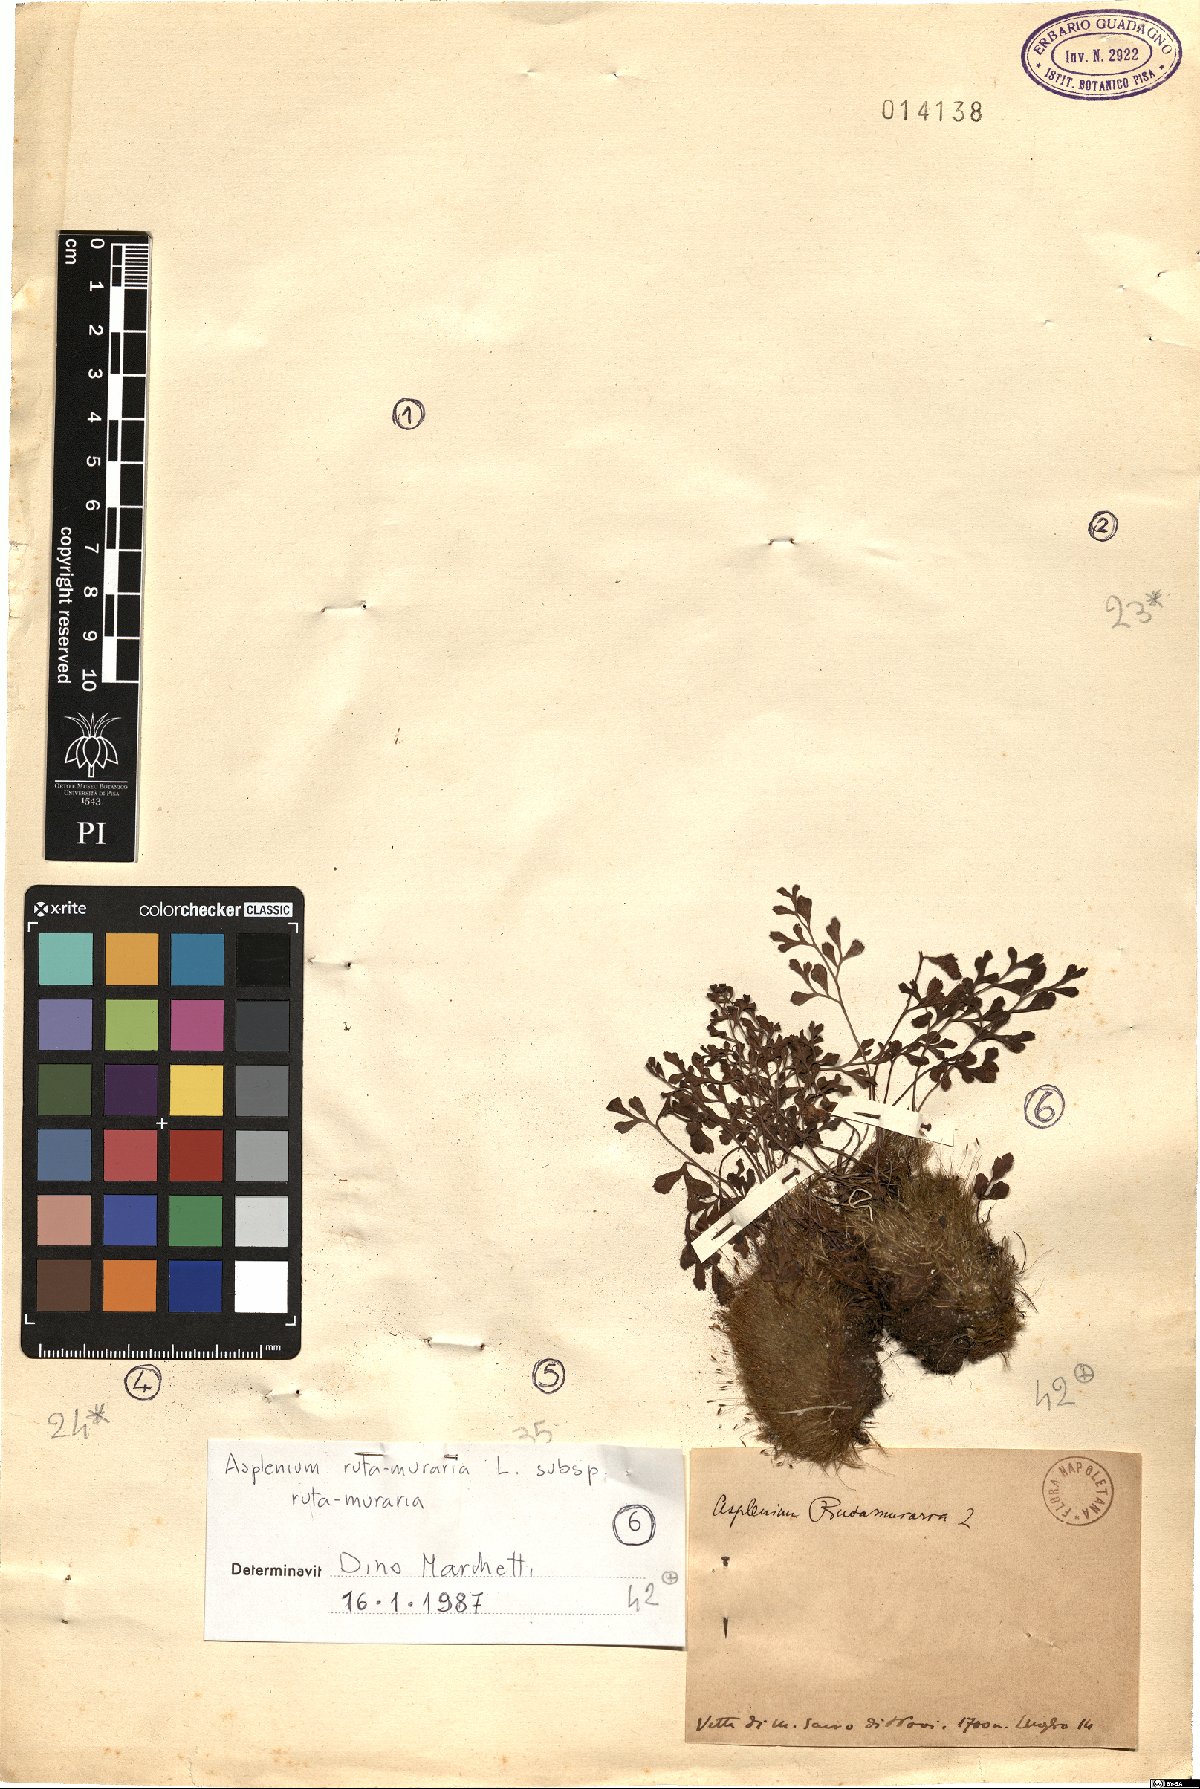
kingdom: Plantae
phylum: Tracheophyta
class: Polypodiopsida
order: Polypodiales
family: Aspleniaceae
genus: Asplenium
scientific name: Asplenium ruta-muraria
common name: Wall-rue
